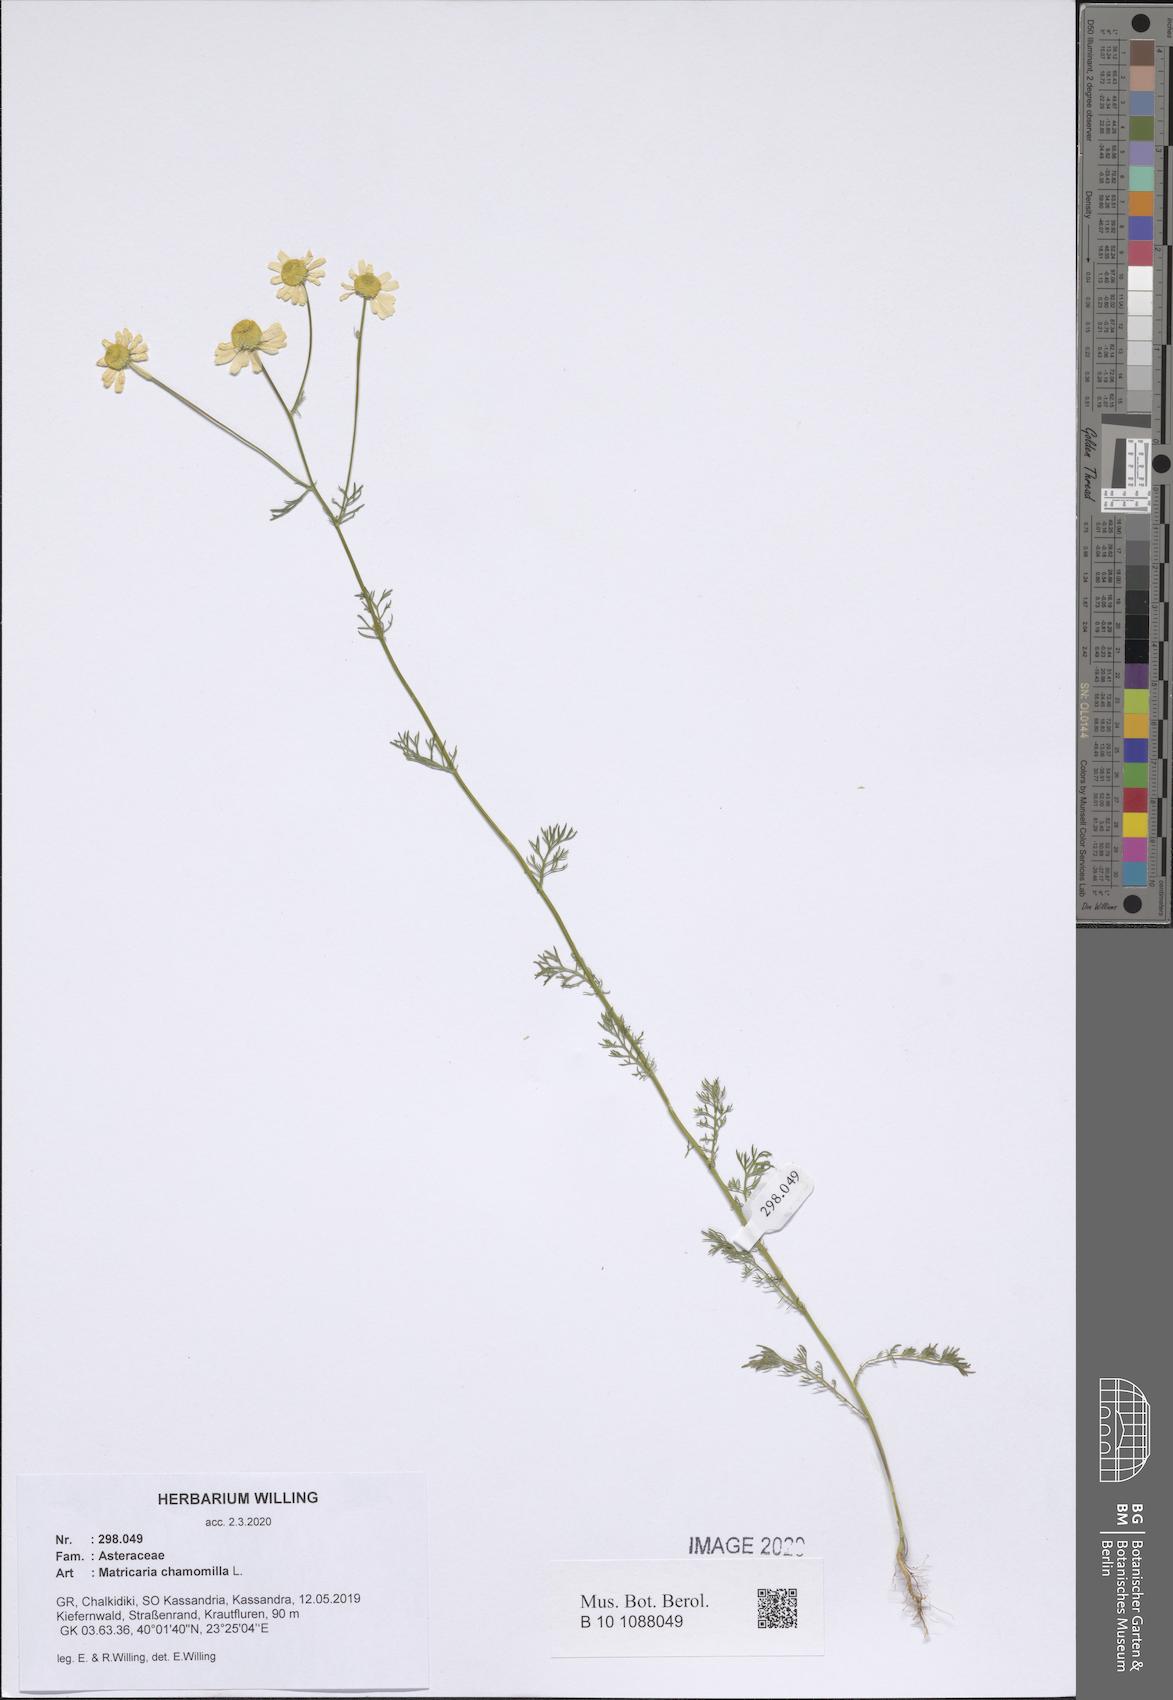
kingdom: Plantae
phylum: Tracheophyta
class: Magnoliopsida
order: Asterales
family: Asteraceae
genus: Matricaria
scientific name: Matricaria chamomilla
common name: Scented mayweed
